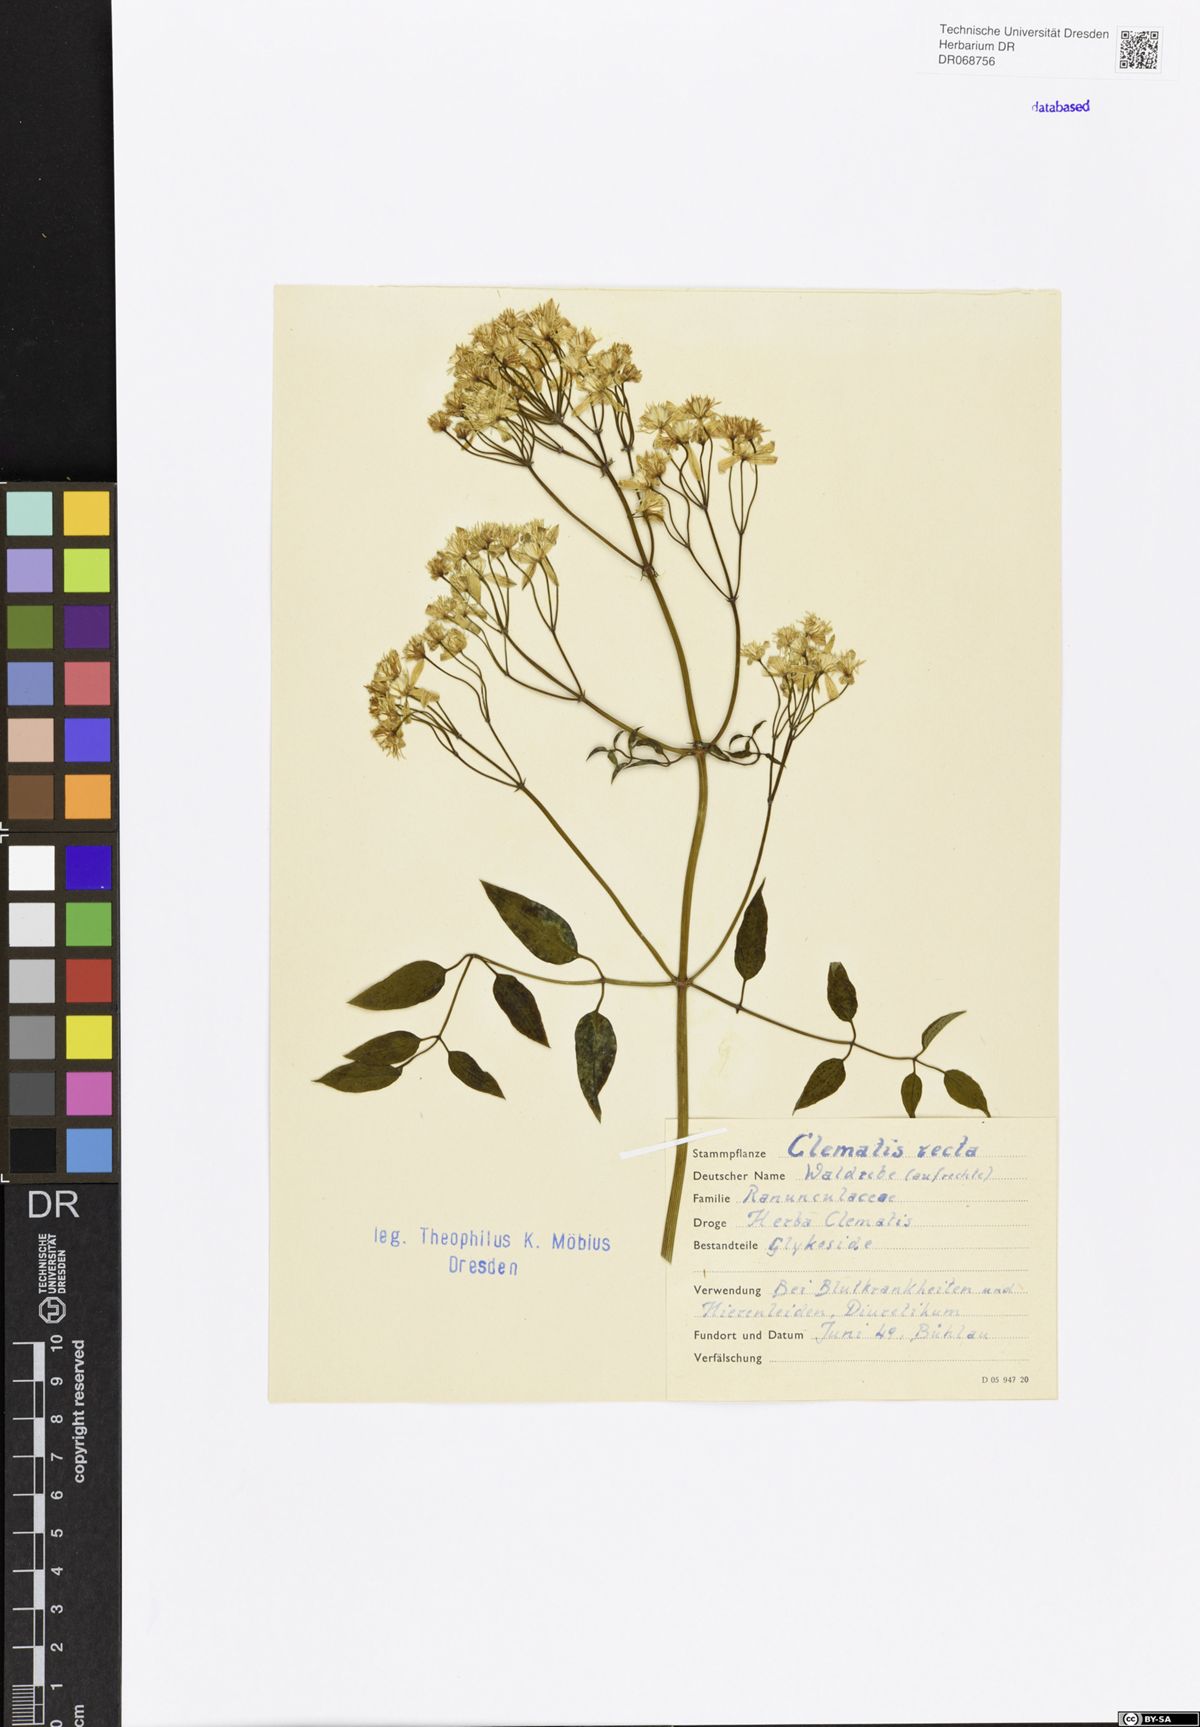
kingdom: Plantae
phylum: Tracheophyta
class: Magnoliopsida
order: Ranunculales
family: Ranunculaceae
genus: Clematis
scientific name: Clematis recta
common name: Ground clematis
